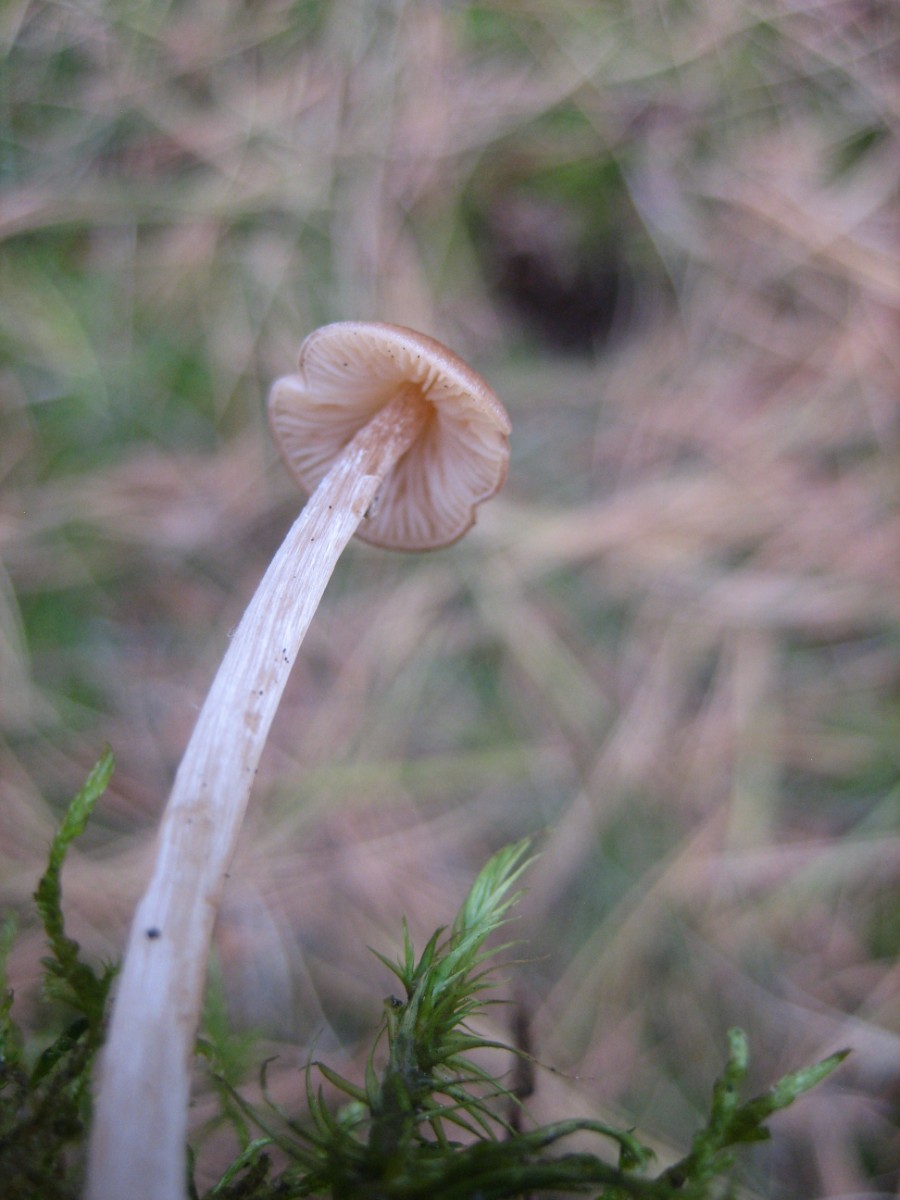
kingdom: Fungi
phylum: Basidiomycota
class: Agaricomycetes
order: Agaricales
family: Entolomataceae
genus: Entoloma
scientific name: Entoloma
